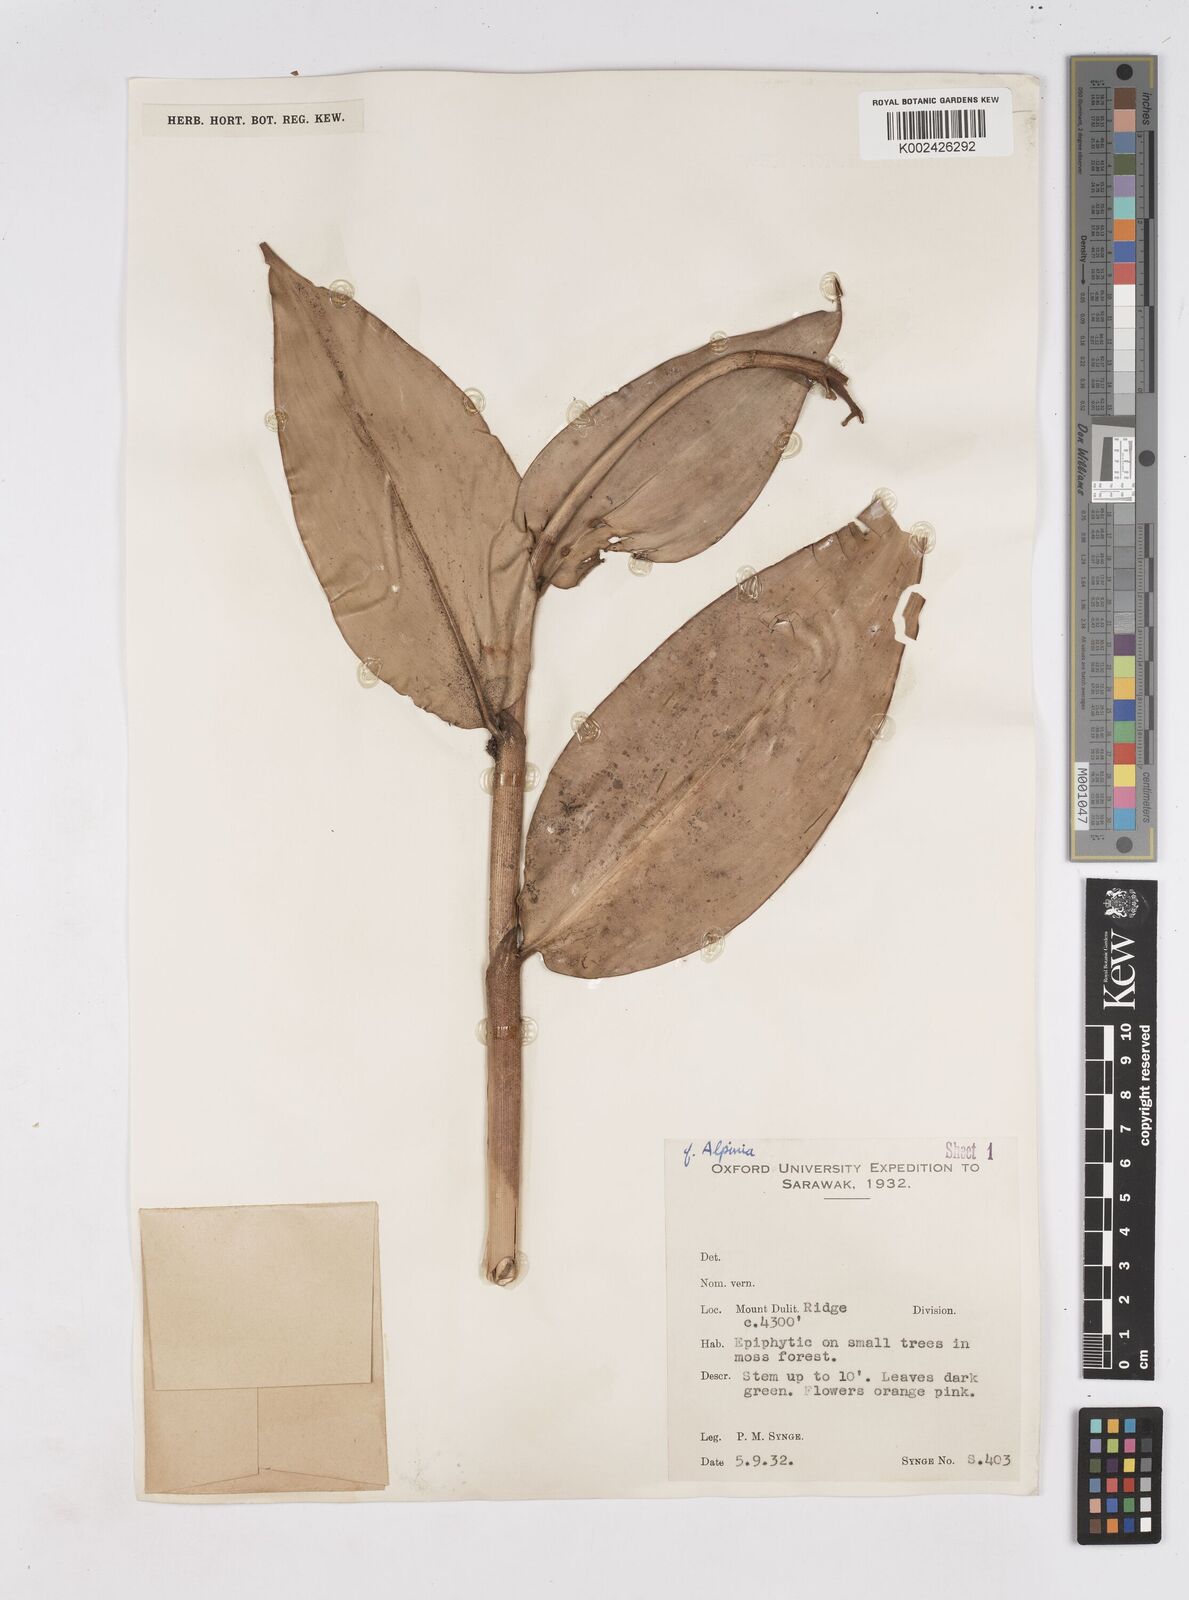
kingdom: Plantae
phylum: Tracheophyta
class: Liliopsida
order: Zingiberales
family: Zingiberaceae
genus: Burbidgea
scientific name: Burbidgea longiflora
